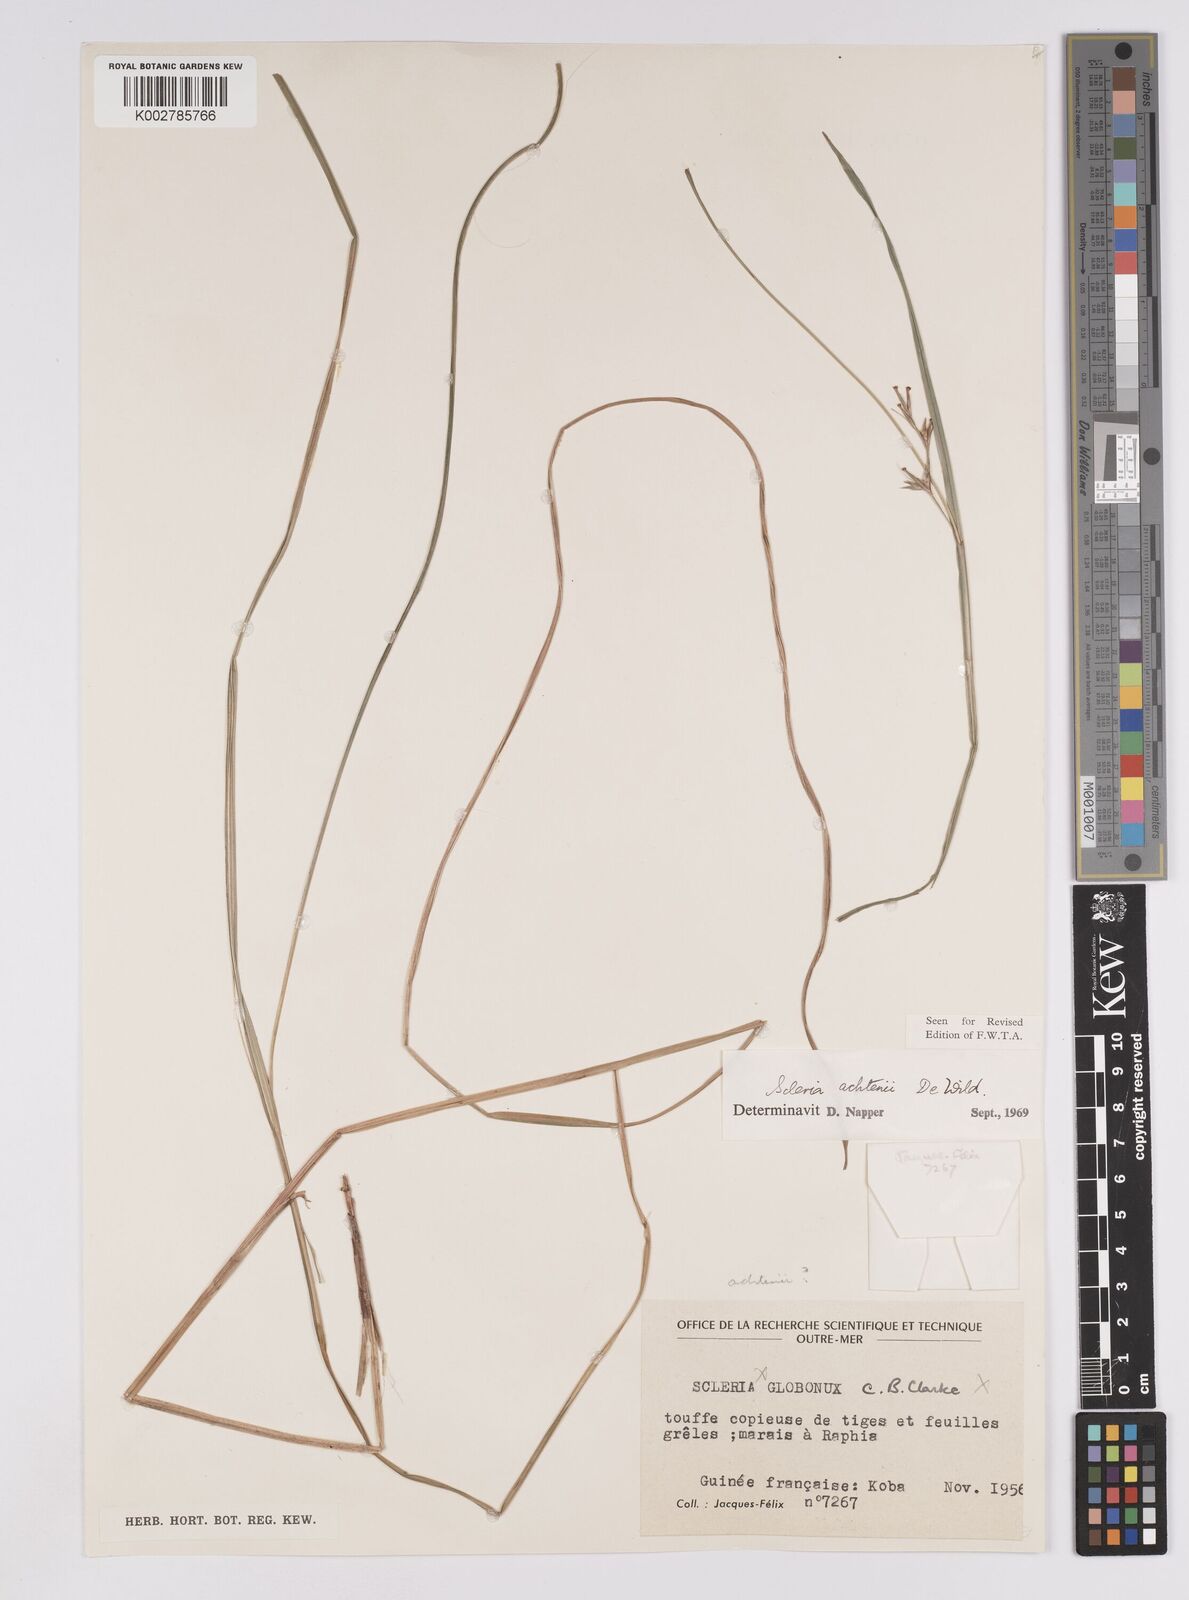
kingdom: Plantae
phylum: Tracheophyta
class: Liliopsida
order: Poales
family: Cyperaceae
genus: Scleria
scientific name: Scleria achtenii
